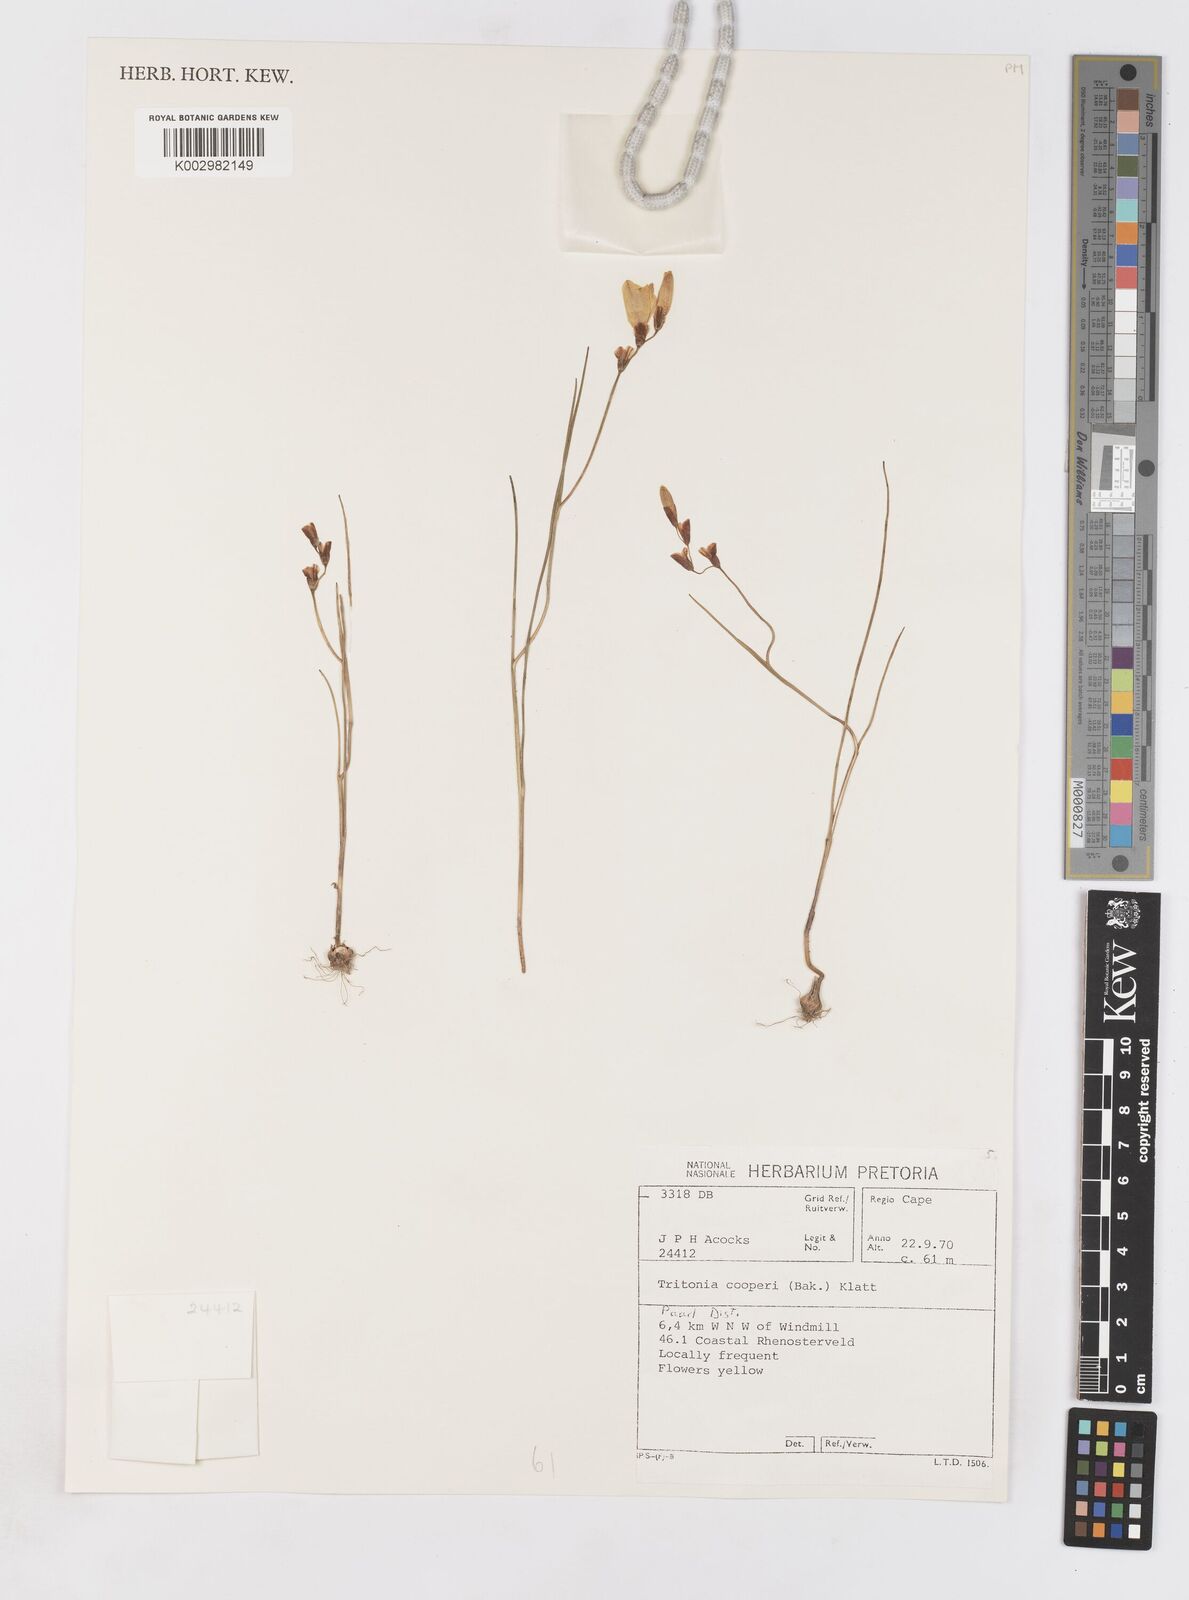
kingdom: Plantae
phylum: Tracheophyta
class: Liliopsida
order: Asparagales
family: Iridaceae
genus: Tritonia
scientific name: Tritonia cooperi
